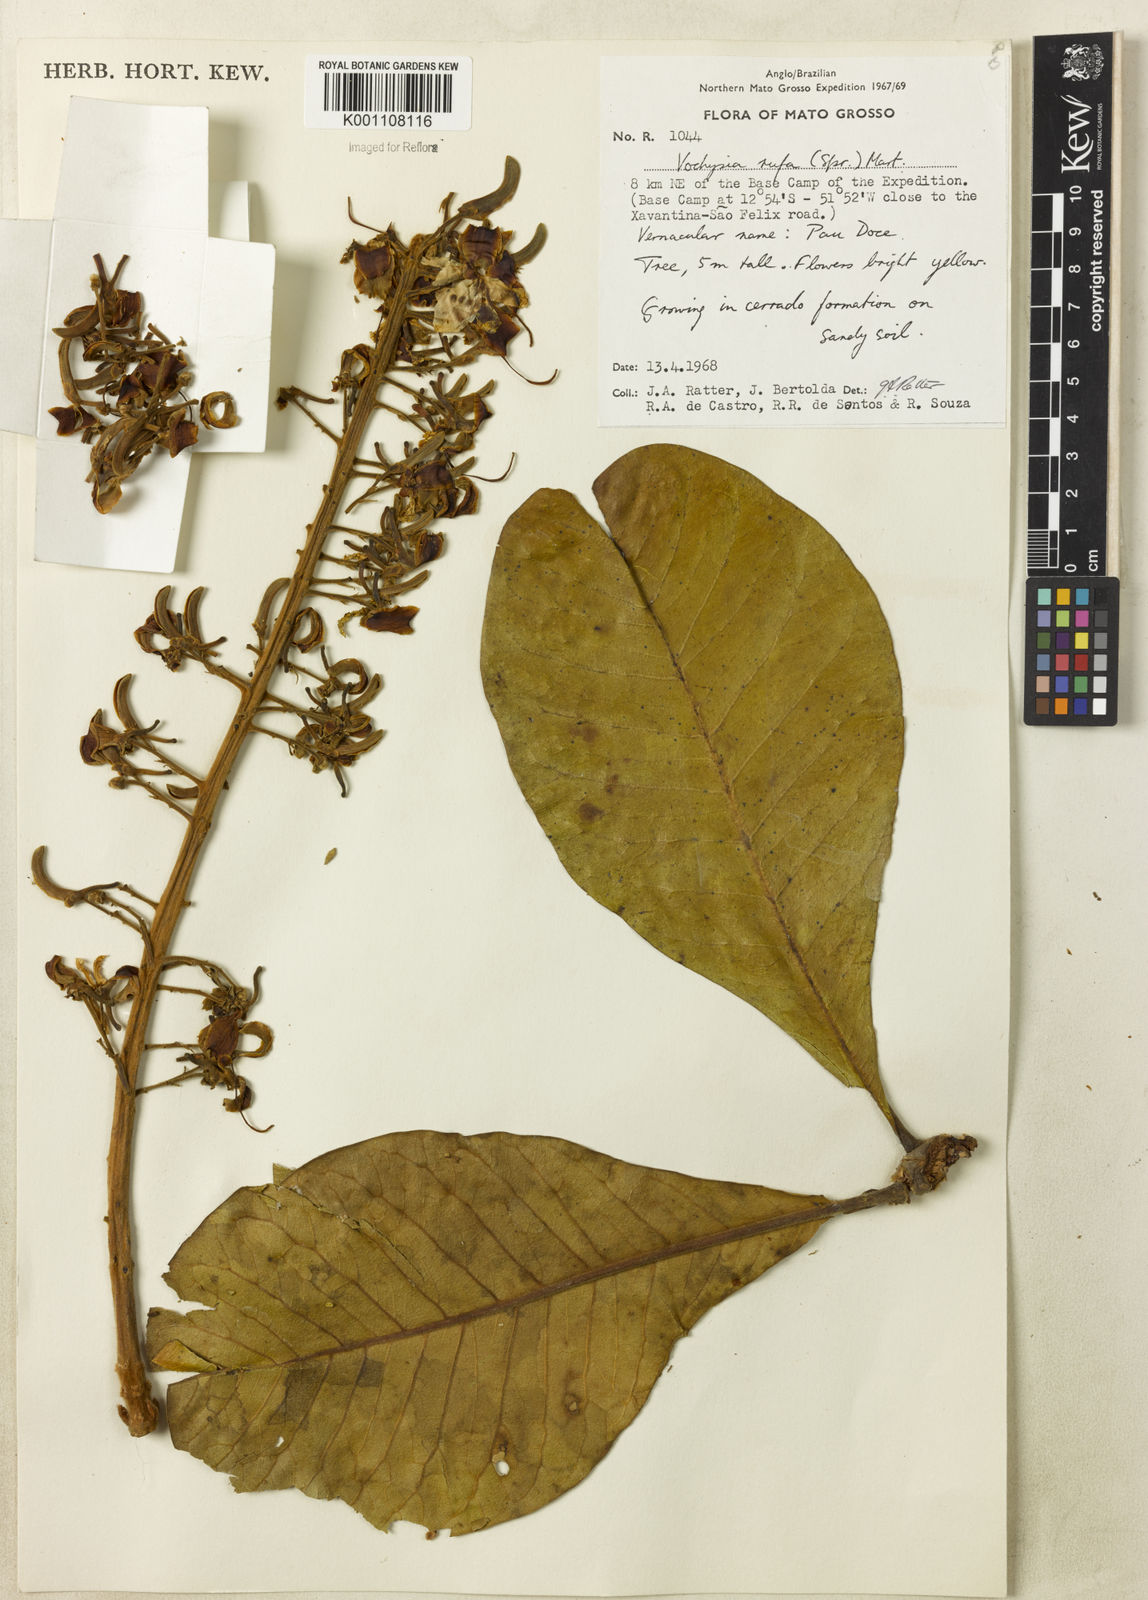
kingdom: Plantae
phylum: Tracheophyta
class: Magnoliopsida
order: Myrtales
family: Vochysiaceae
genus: Vochysia
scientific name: Vochysia rufa
